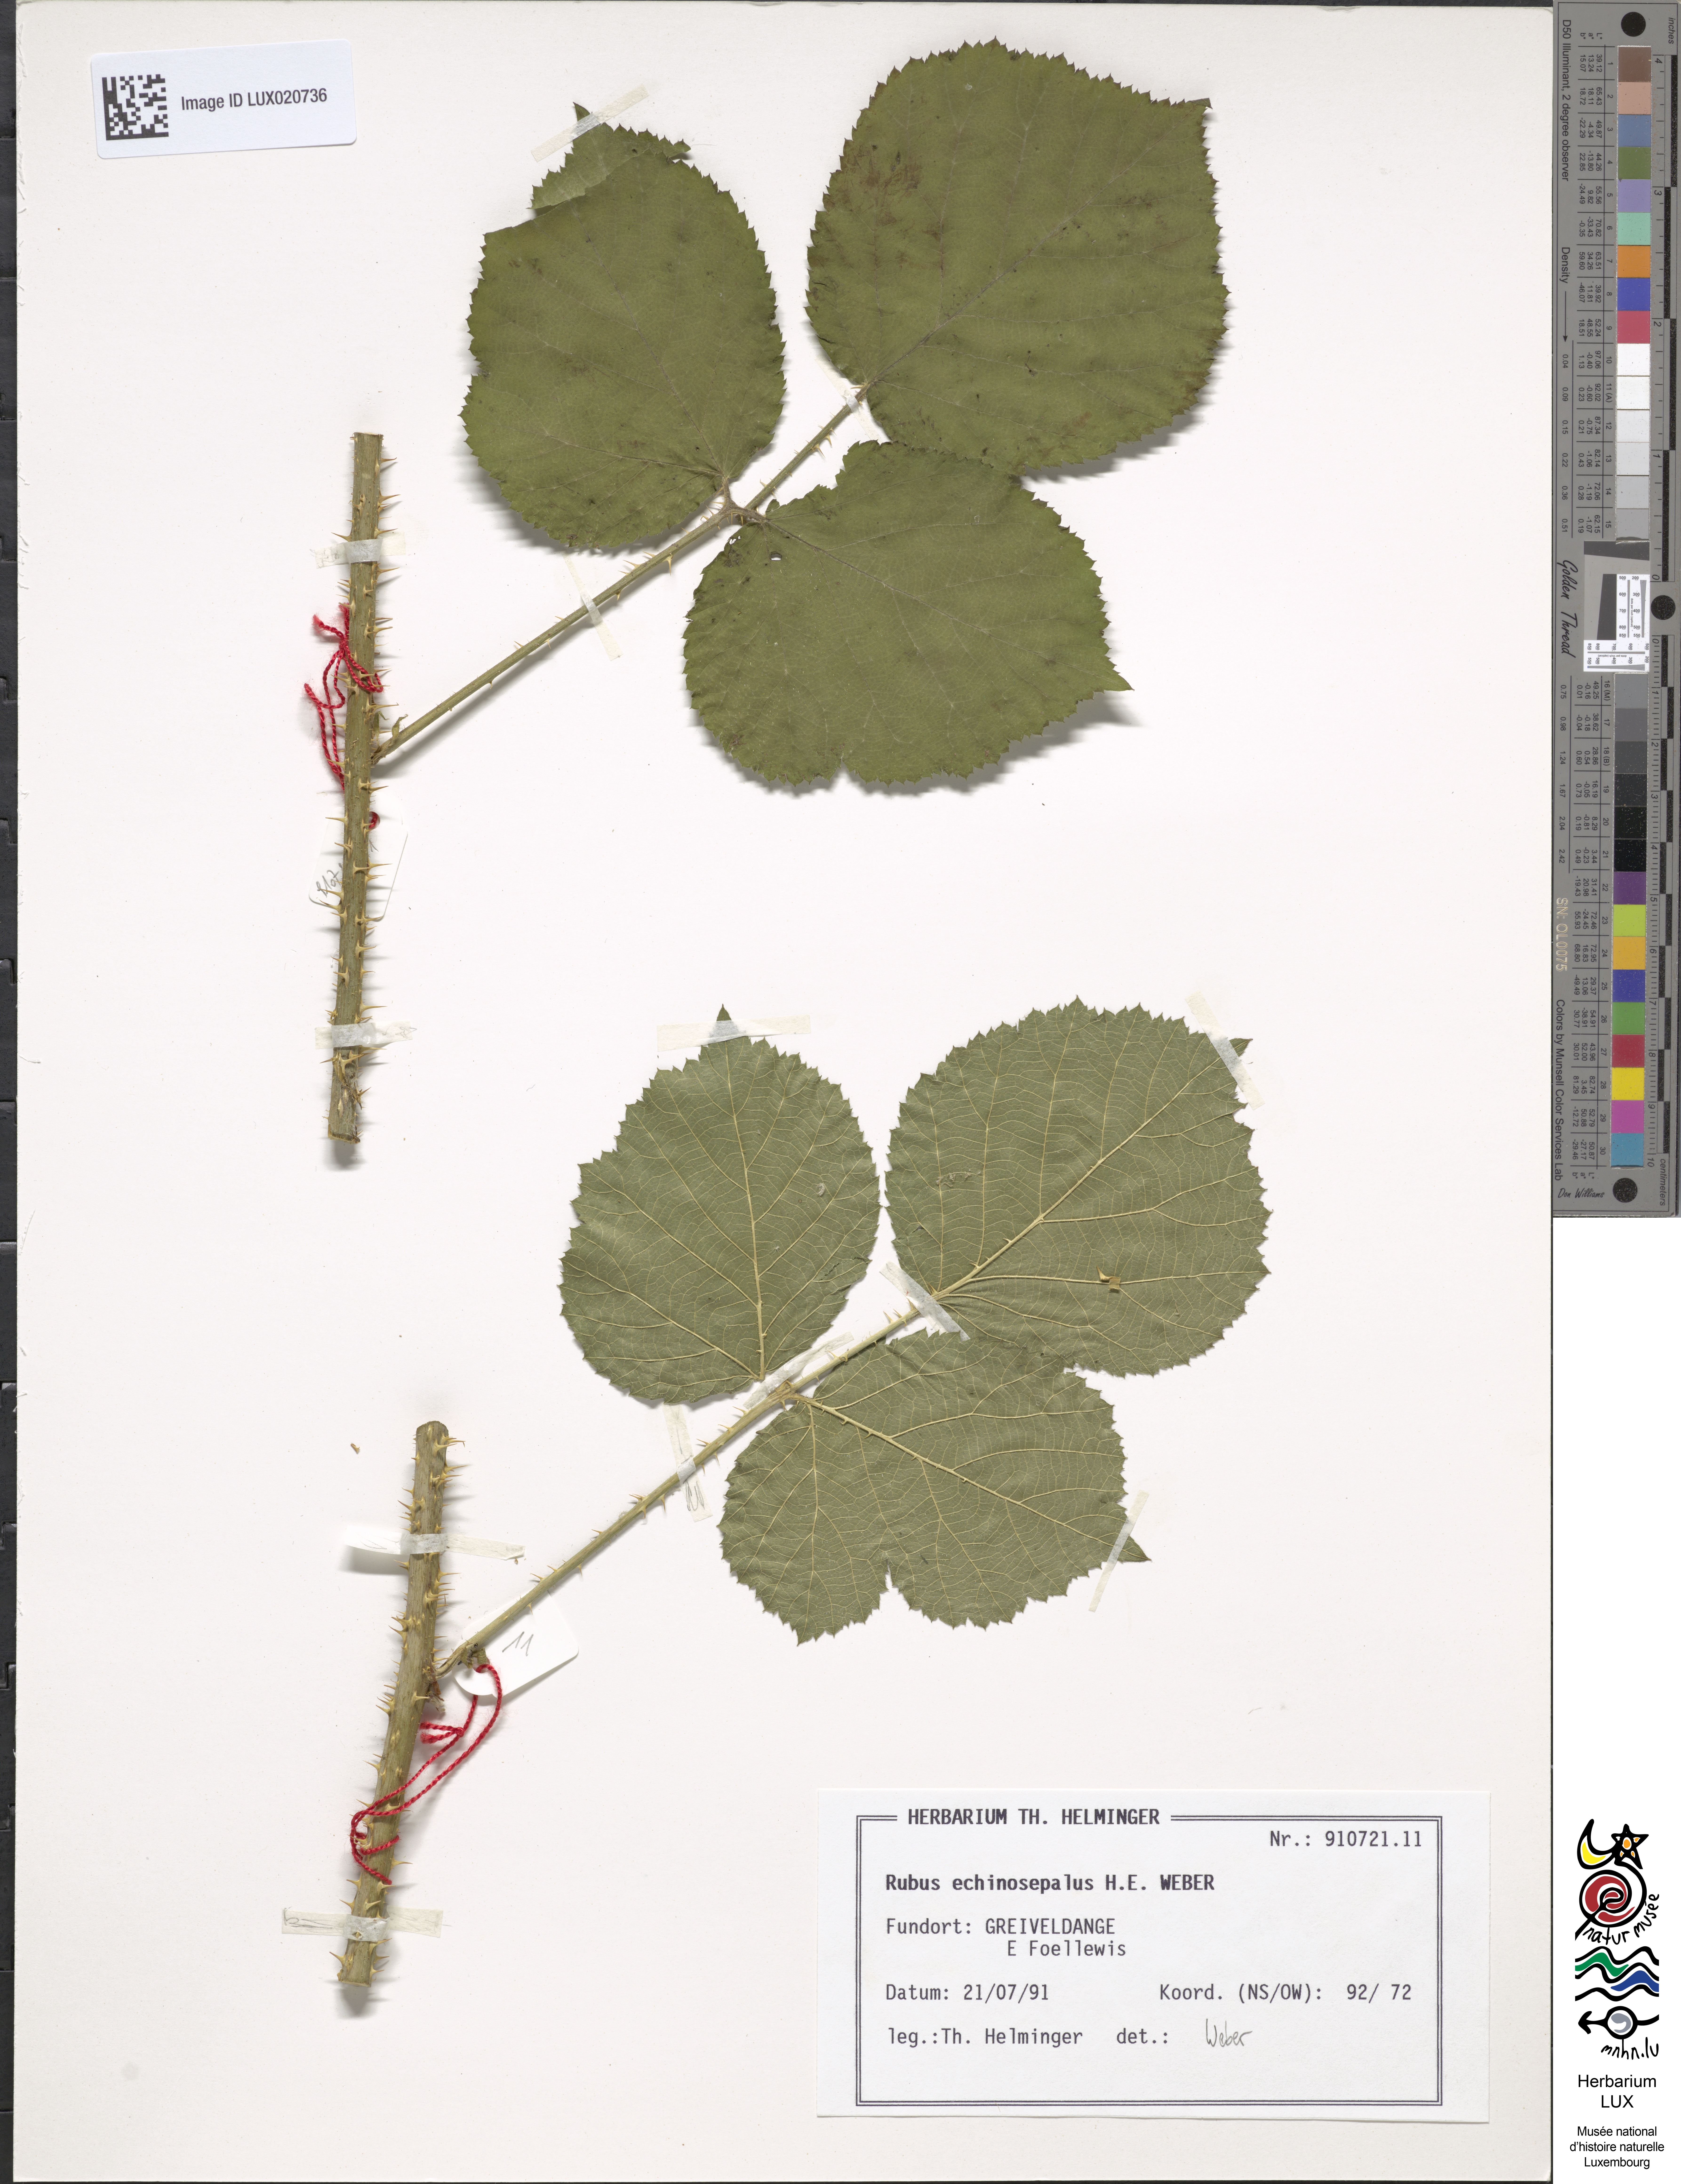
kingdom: Plantae
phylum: Tracheophyta
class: Magnoliopsida
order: Rosales
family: Rosaceae
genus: Rubus
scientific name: Rubus echinosepalus
